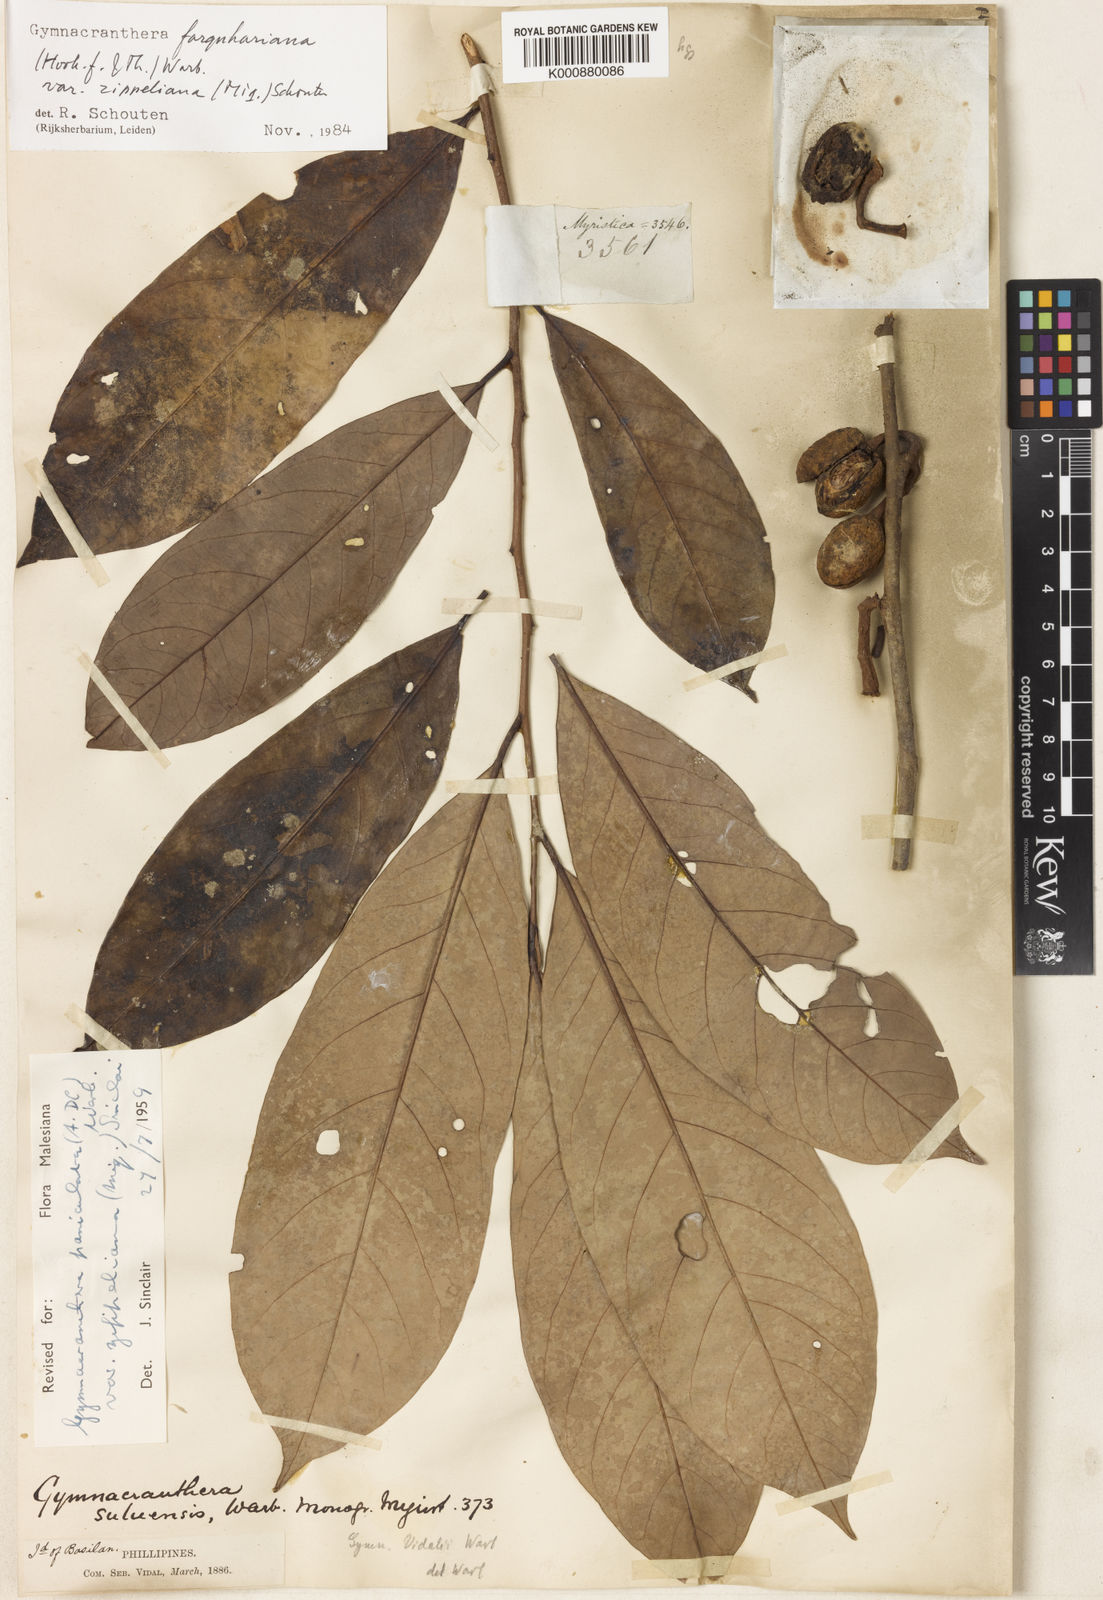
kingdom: Plantae
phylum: Tracheophyta
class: Magnoliopsida
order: Magnoliales
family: Myristicaceae
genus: Gymnacranthera
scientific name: Gymnacranthera farquhariana
